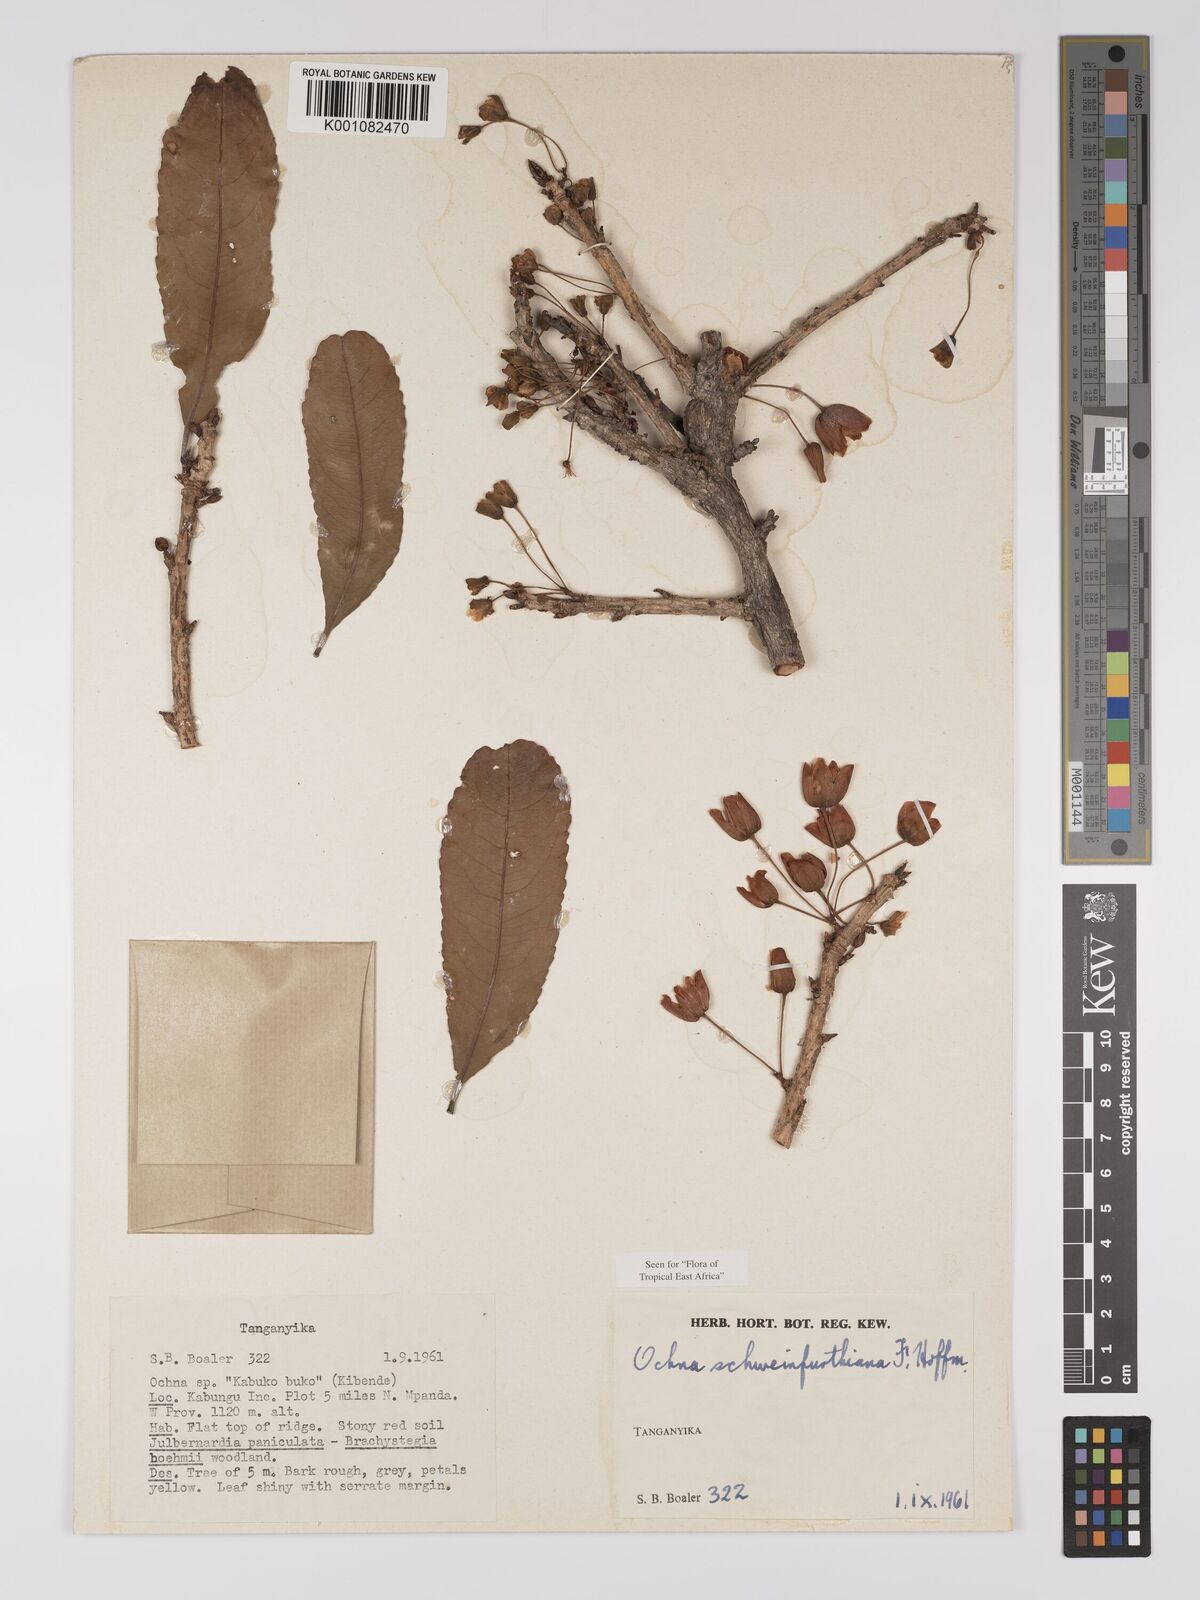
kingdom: Plantae
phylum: Tracheophyta
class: Magnoliopsida
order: Malpighiales
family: Ochnaceae
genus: Ochna
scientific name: Ochna schweinfurthiana
